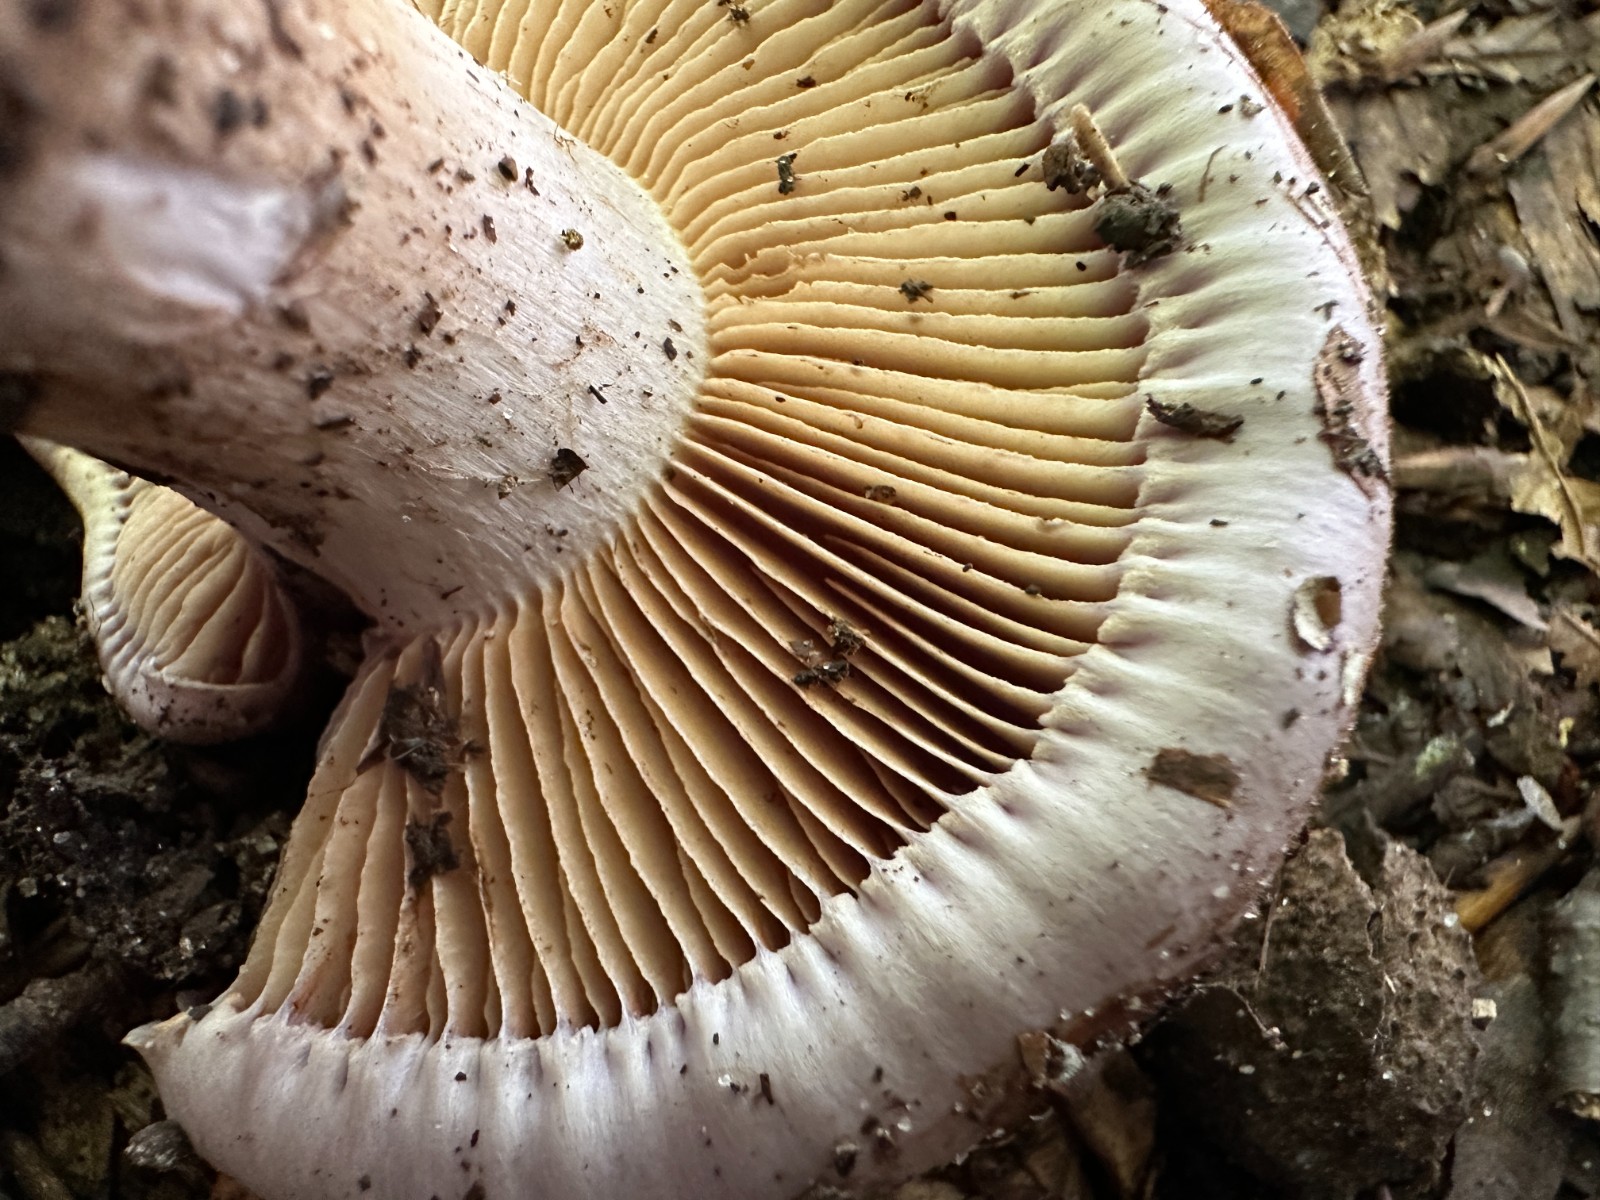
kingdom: Fungi
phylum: Basidiomycota
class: Agaricomycetes
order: Agaricales
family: Cortinariaceae
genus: Cortinarius
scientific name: Cortinarius largus
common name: violetrandet slørhat
